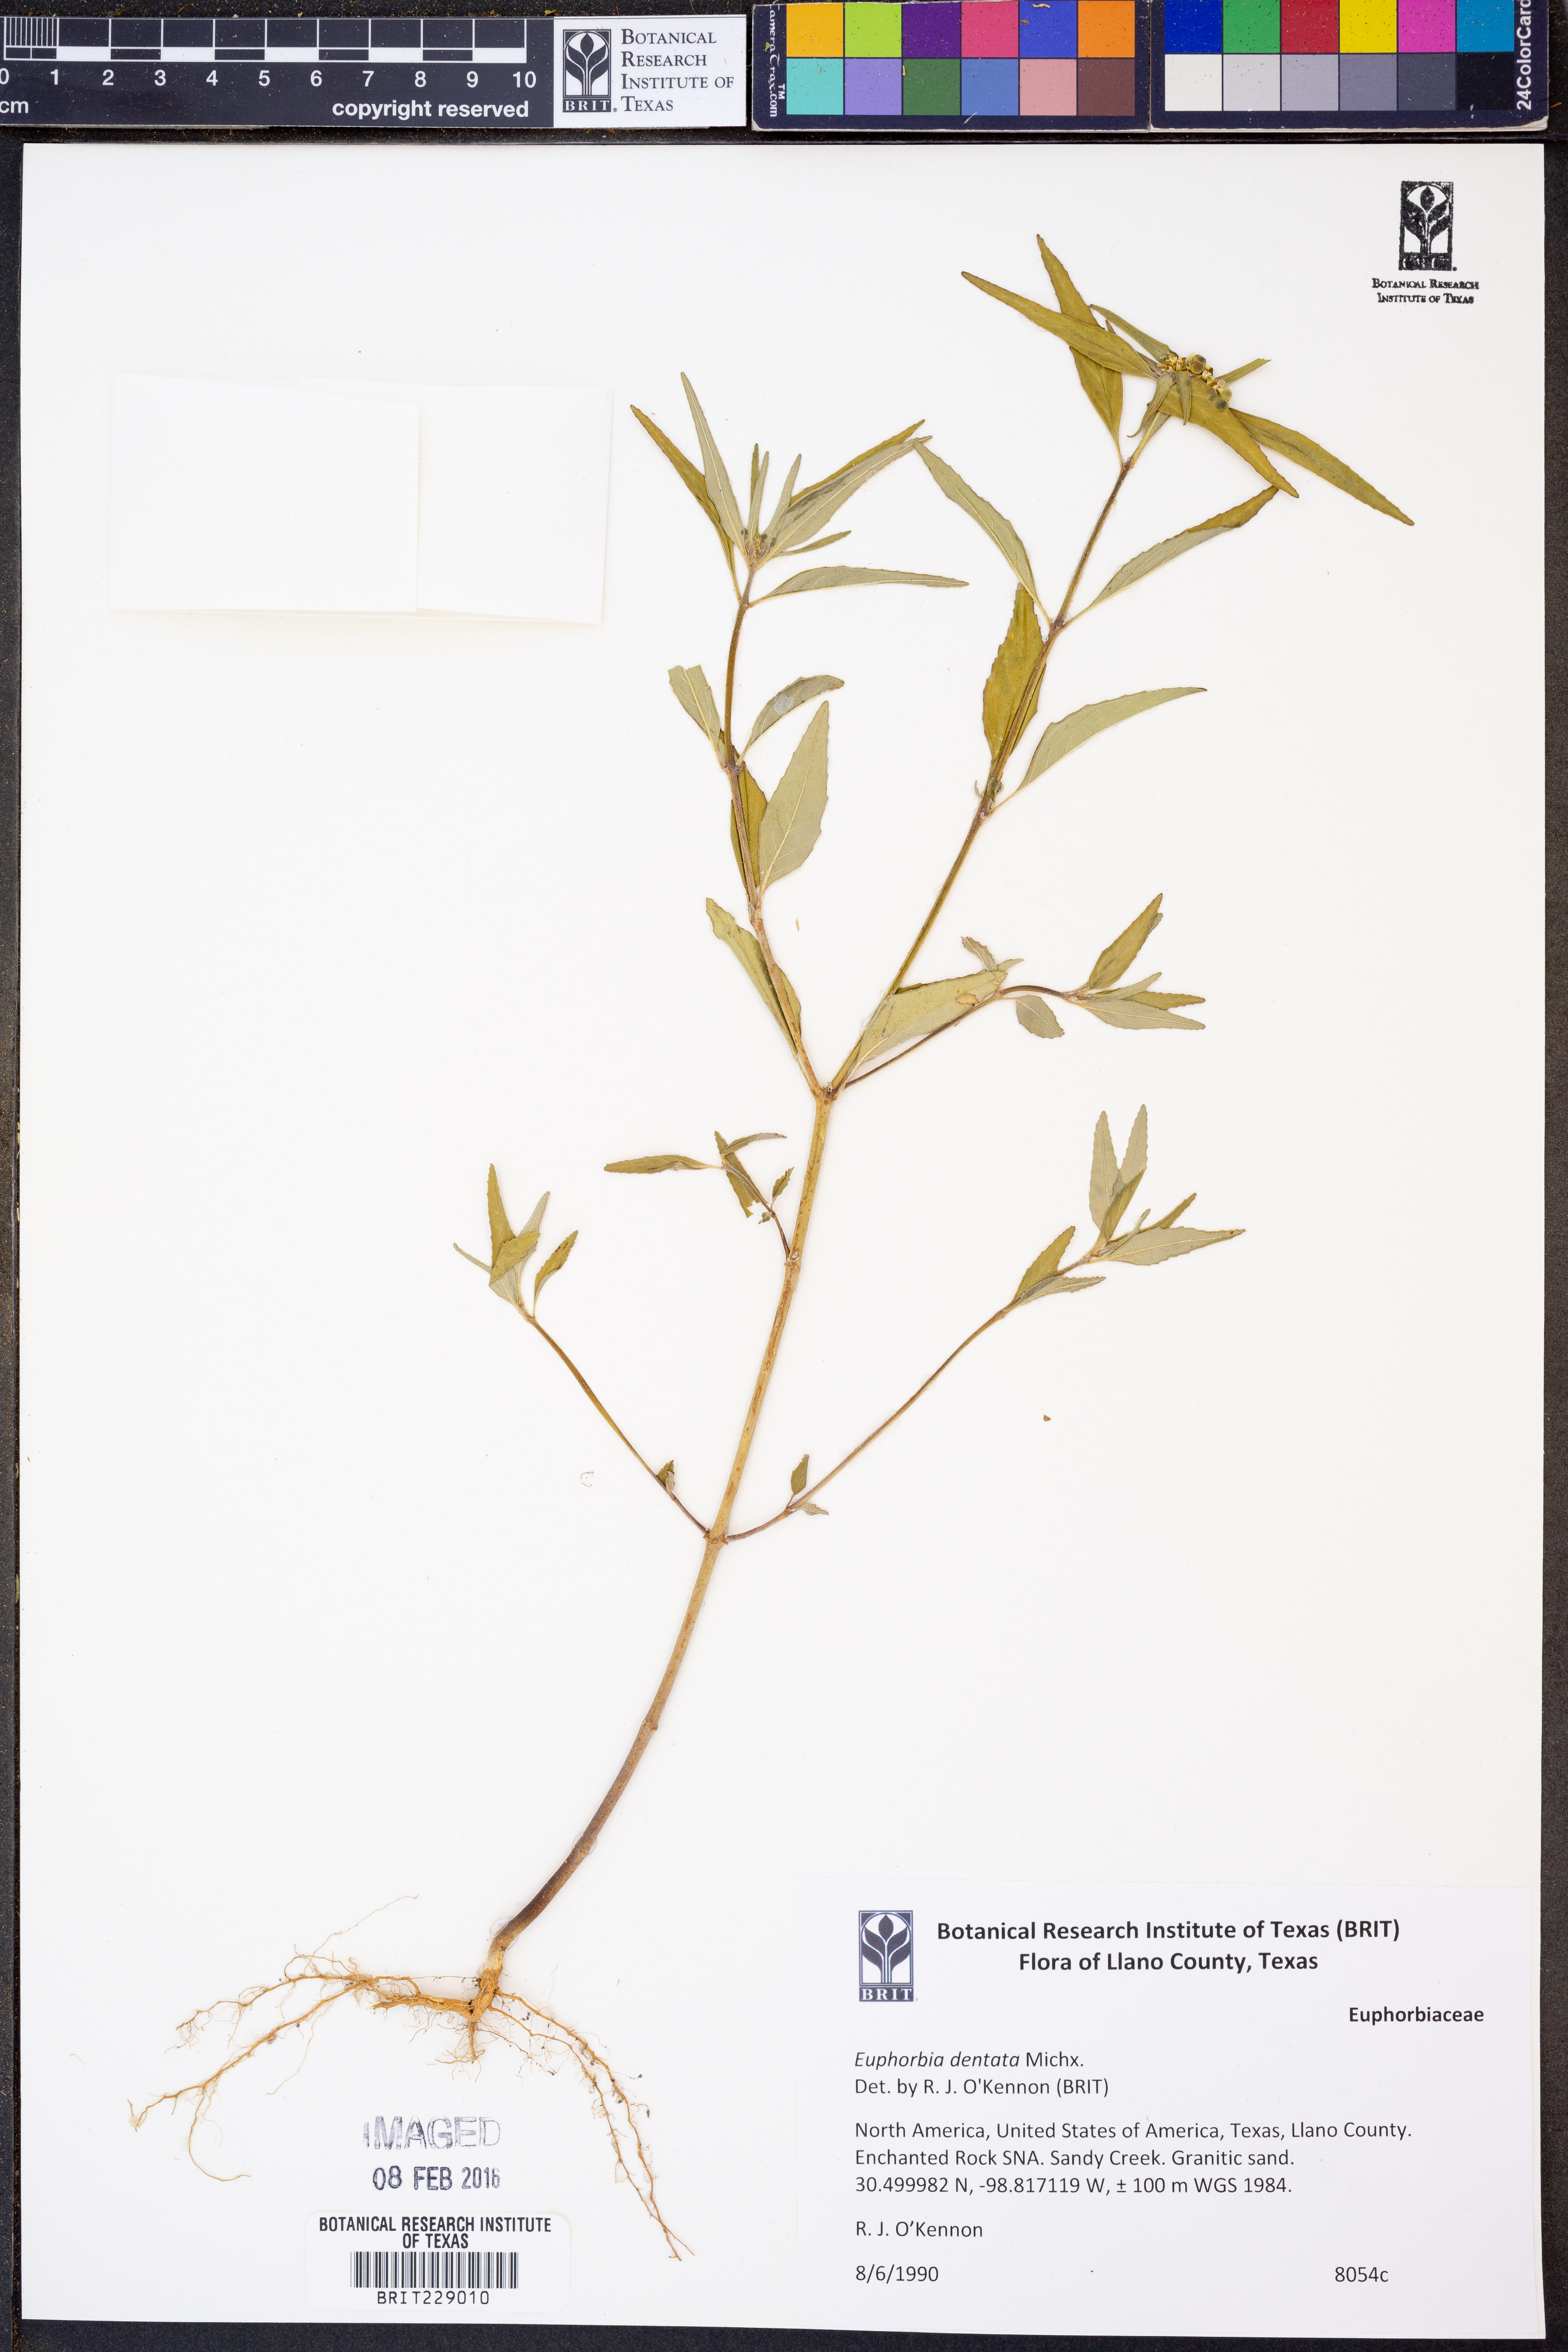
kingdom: Plantae
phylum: Tracheophyta
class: Magnoliopsida
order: Malpighiales
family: Euphorbiaceae
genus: Euphorbia
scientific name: Euphorbia dentata
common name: Dentate spurge
